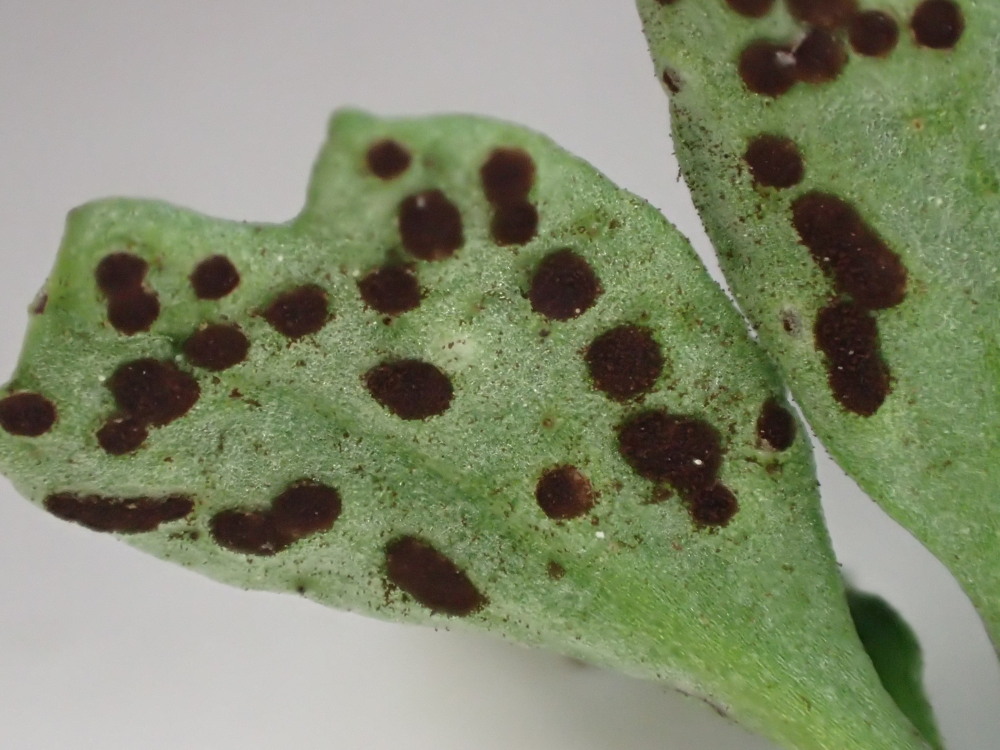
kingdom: Fungi
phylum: Basidiomycota
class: Pucciniomycetes
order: Pucciniales
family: Tranzscheliaceae
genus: Tranzschelia
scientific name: Tranzschelia anemones
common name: anemone-knæksporerust
